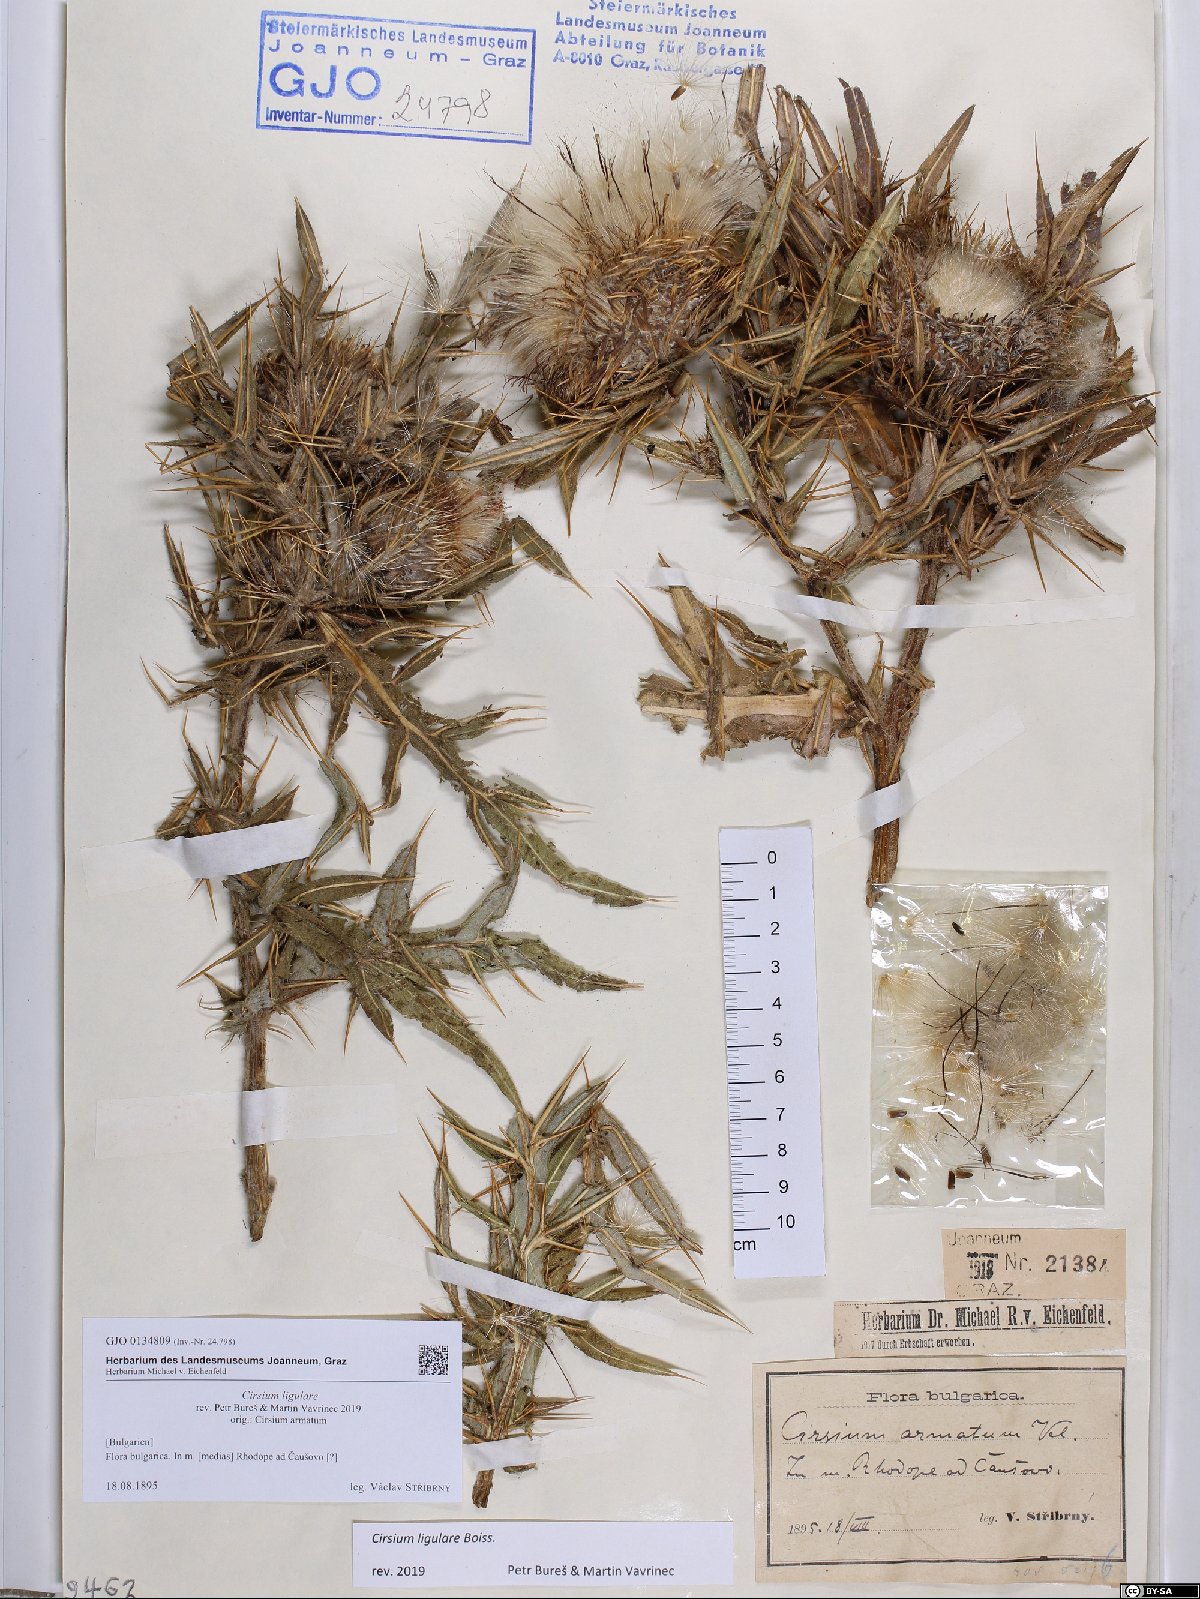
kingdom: Plantae
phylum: Tracheophyta
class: Magnoliopsida
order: Asterales
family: Asteraceae
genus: Lophiolepis
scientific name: Lophiolepis ligularis
